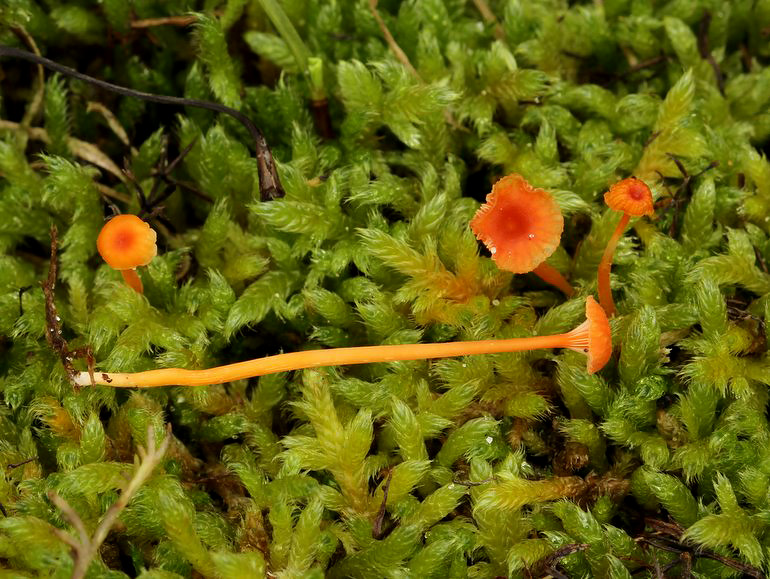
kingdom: Fungi
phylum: Basidiomycota
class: Agaricomycetes
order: Hymenochaetales
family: Rickenellaceae
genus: Rickenella
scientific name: Rickenella fibula
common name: orange mosnavlehat
